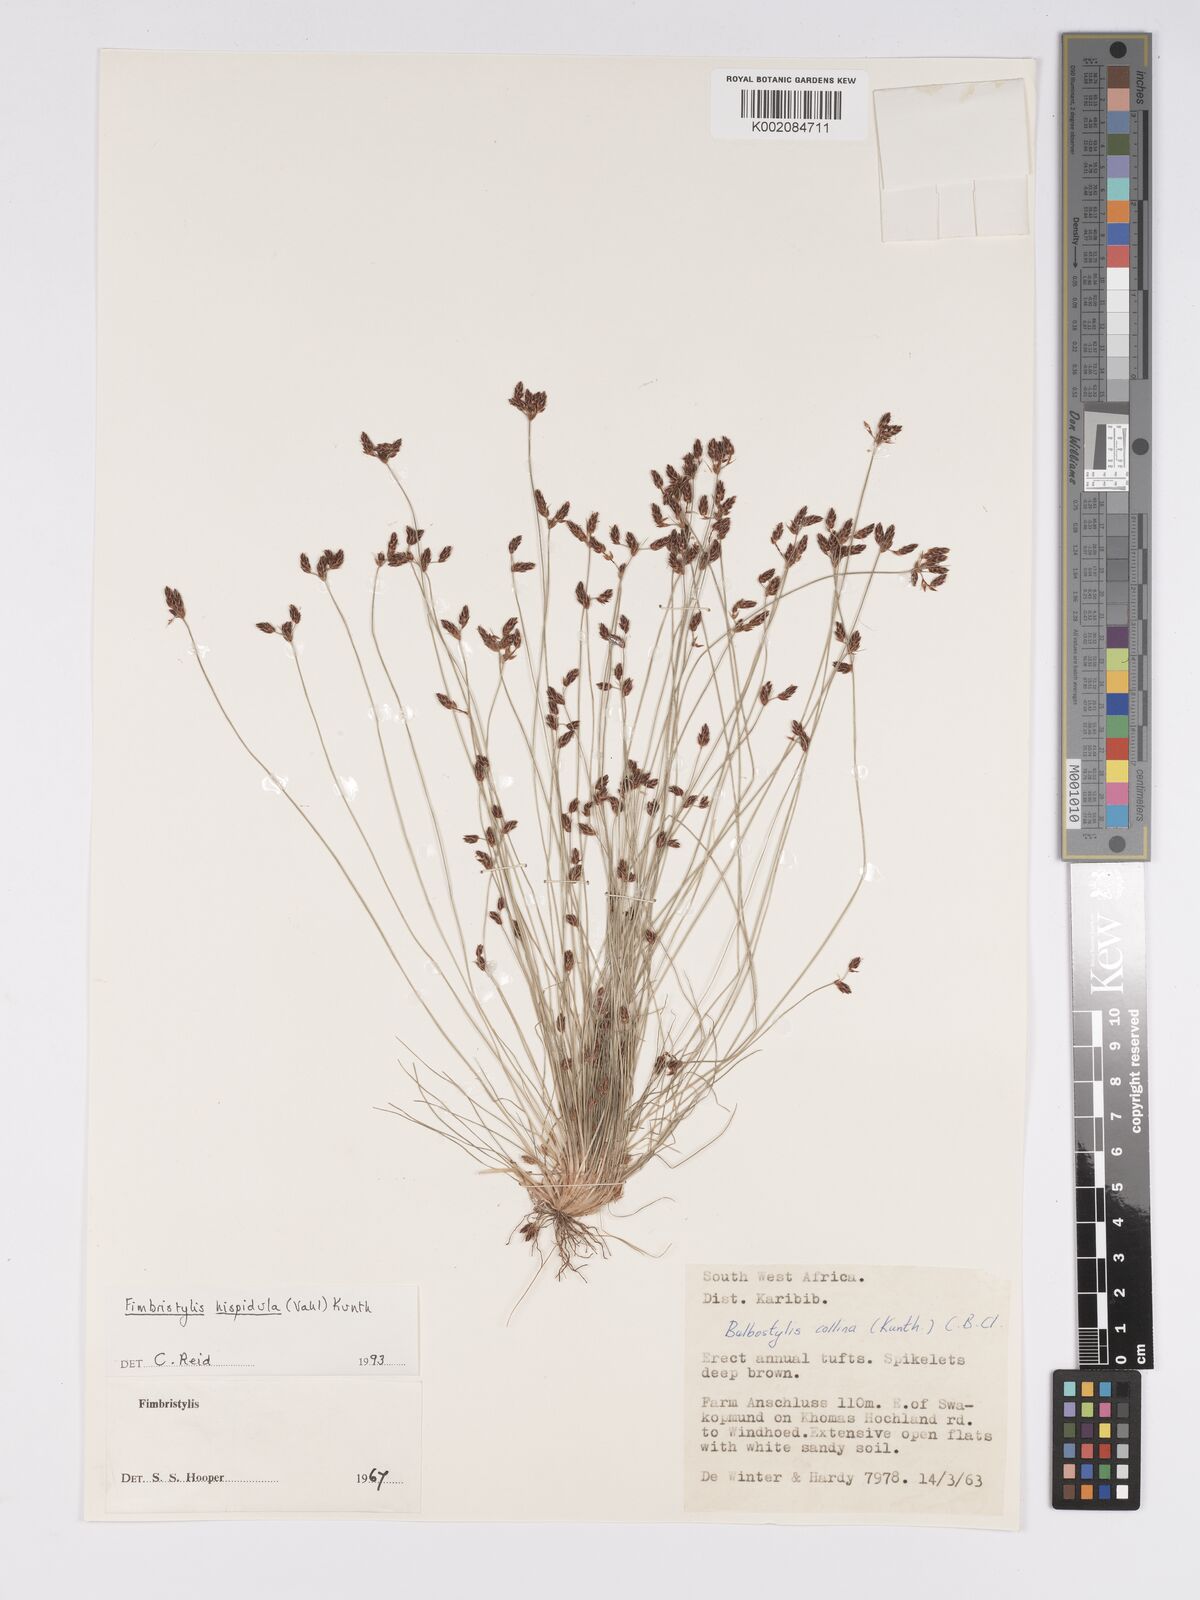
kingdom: Plantae
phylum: Tracheophyta
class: Liliopsida
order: Poales
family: Cyperaceae
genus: Bulbostylis
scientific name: Bulbostylis hispidula
